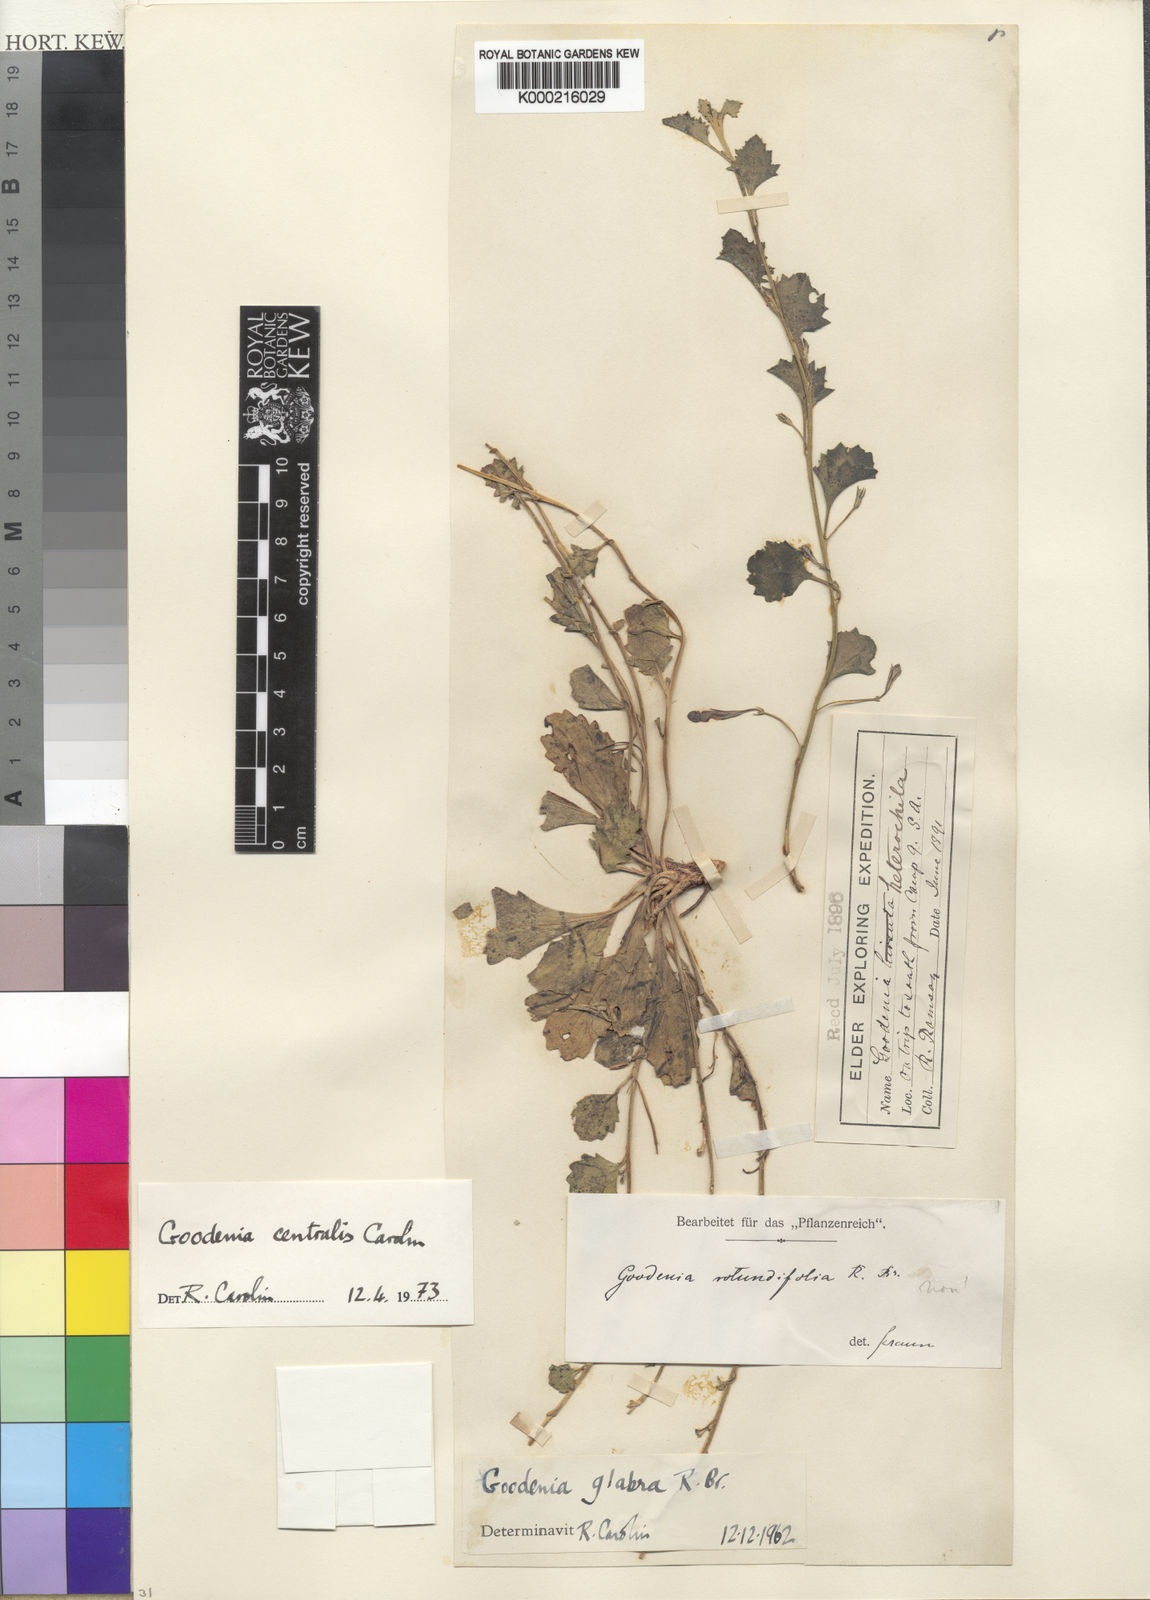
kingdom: Plantae
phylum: Tracheophyta
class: Magnoliopsida
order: Asterales
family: Goodeniaceae
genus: Goodenia
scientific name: Goodenia centralis
